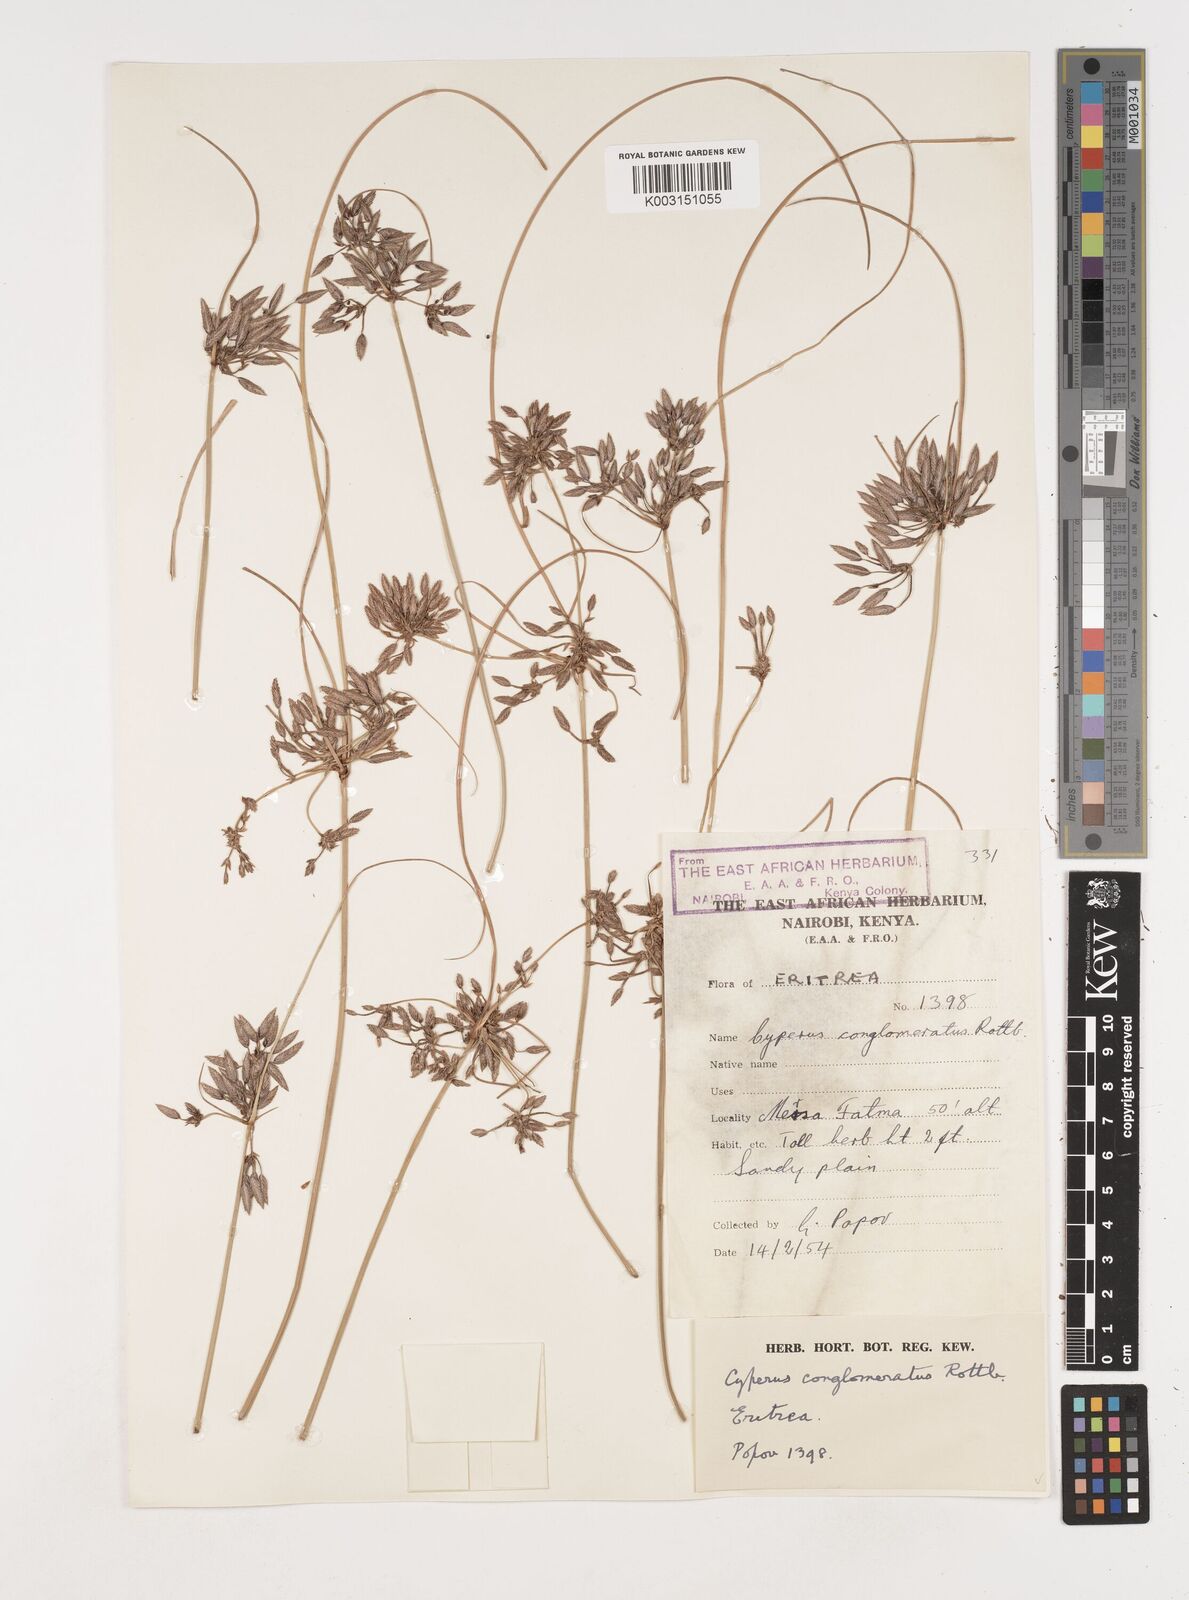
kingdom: Plantae
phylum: Tracheophyta
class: Liliopsida
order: Poales
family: Cyperaceae
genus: Cyperus
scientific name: Cyperus conglomeratus
